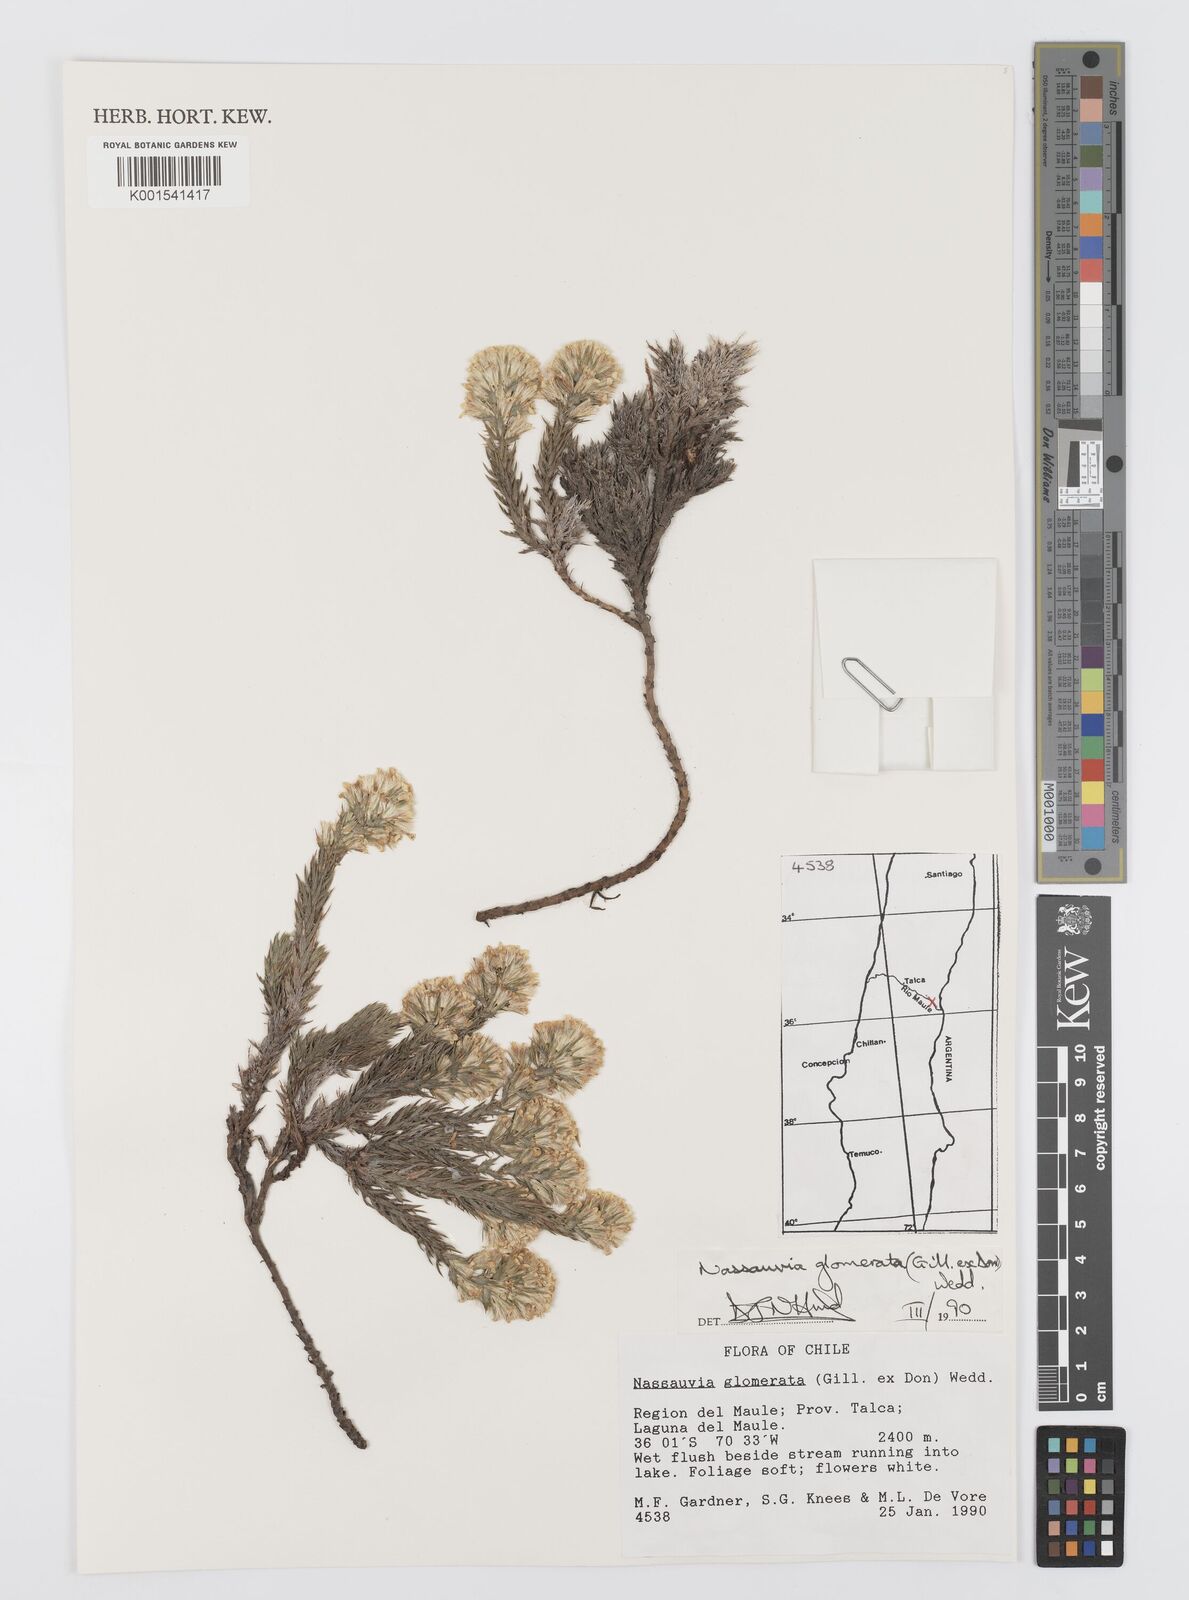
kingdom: Plantae
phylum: Tracheophyta
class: Magnoliopsida
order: Asterales
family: Asteraceae
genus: Nassauvia
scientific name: Nassauvia glomerata
